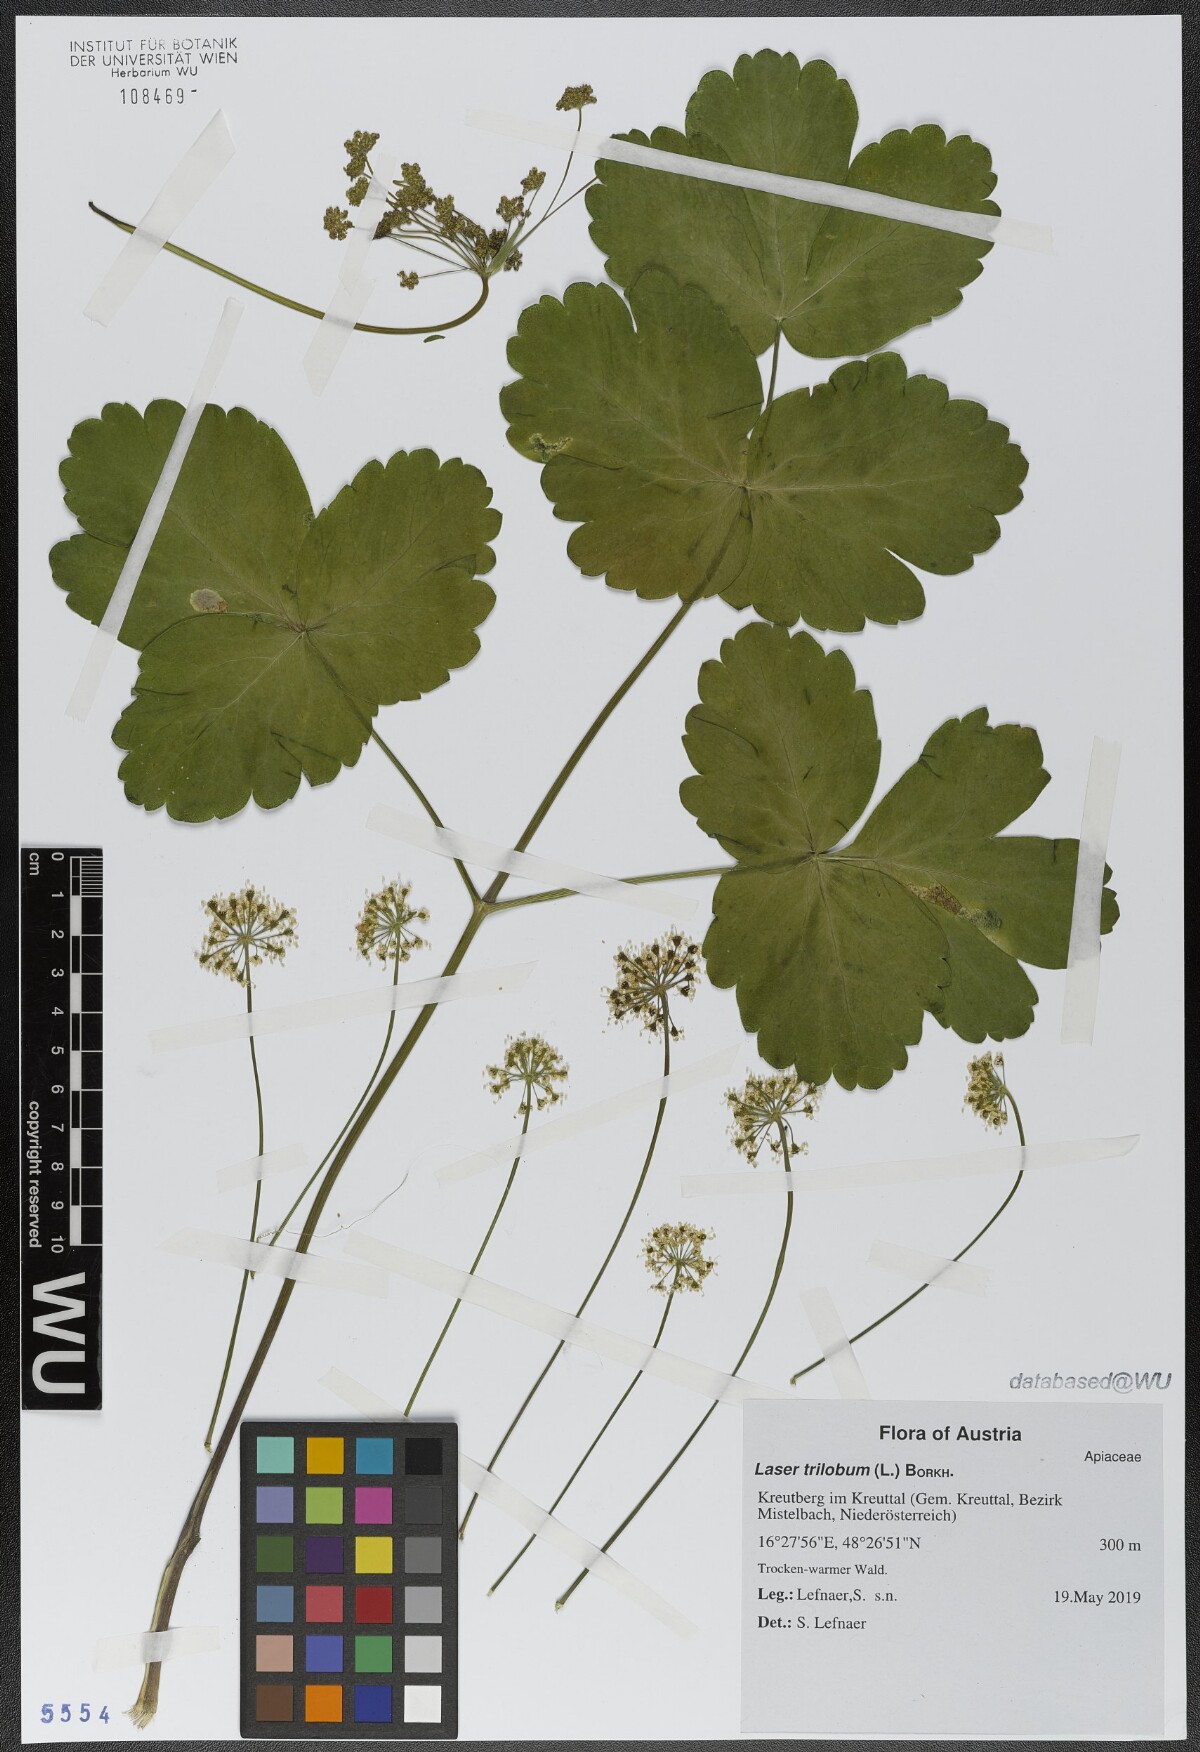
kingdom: Plantae
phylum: Tracheophyta
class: Magnoliopsida
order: Apiales
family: Apiaceae
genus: Laser
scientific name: Laser trilobum
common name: Laser
